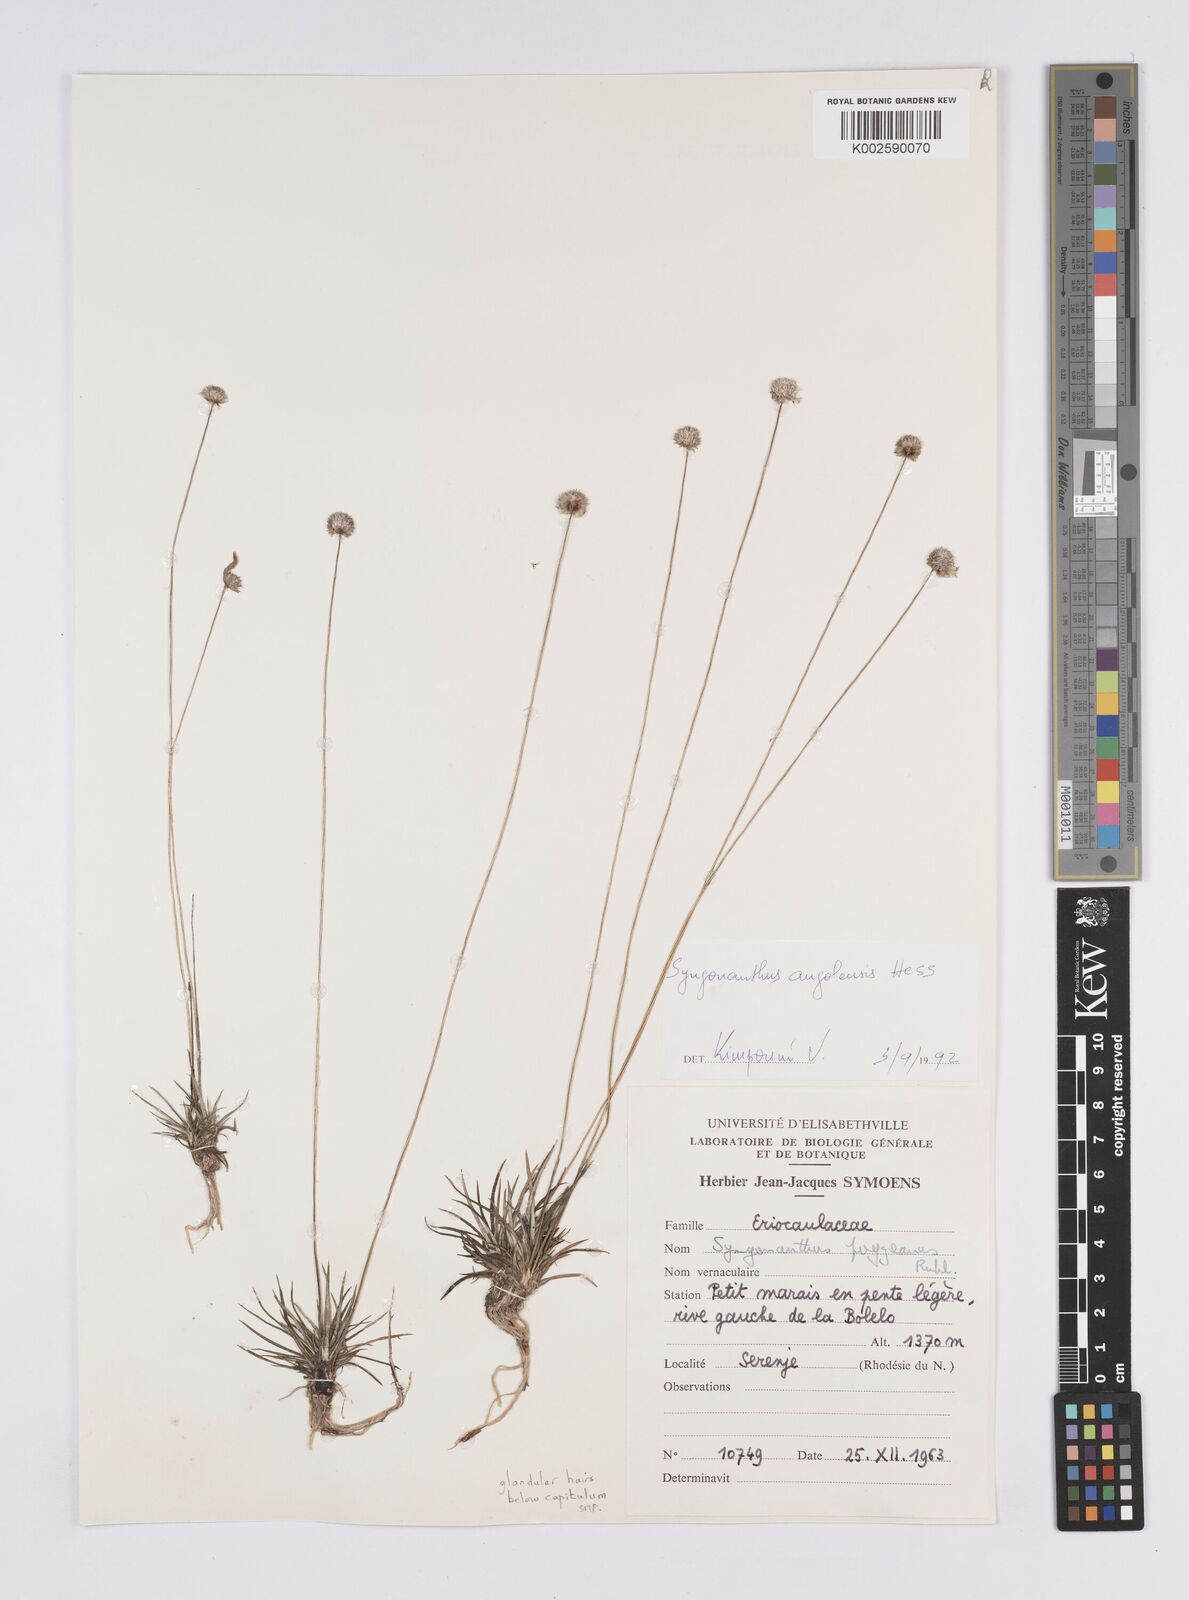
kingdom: Plantae
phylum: Tracheophyta
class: Liliopsida
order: Poales
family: Eriocaulaceae
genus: Syngonanthus
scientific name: Syngonanthus angolensis
